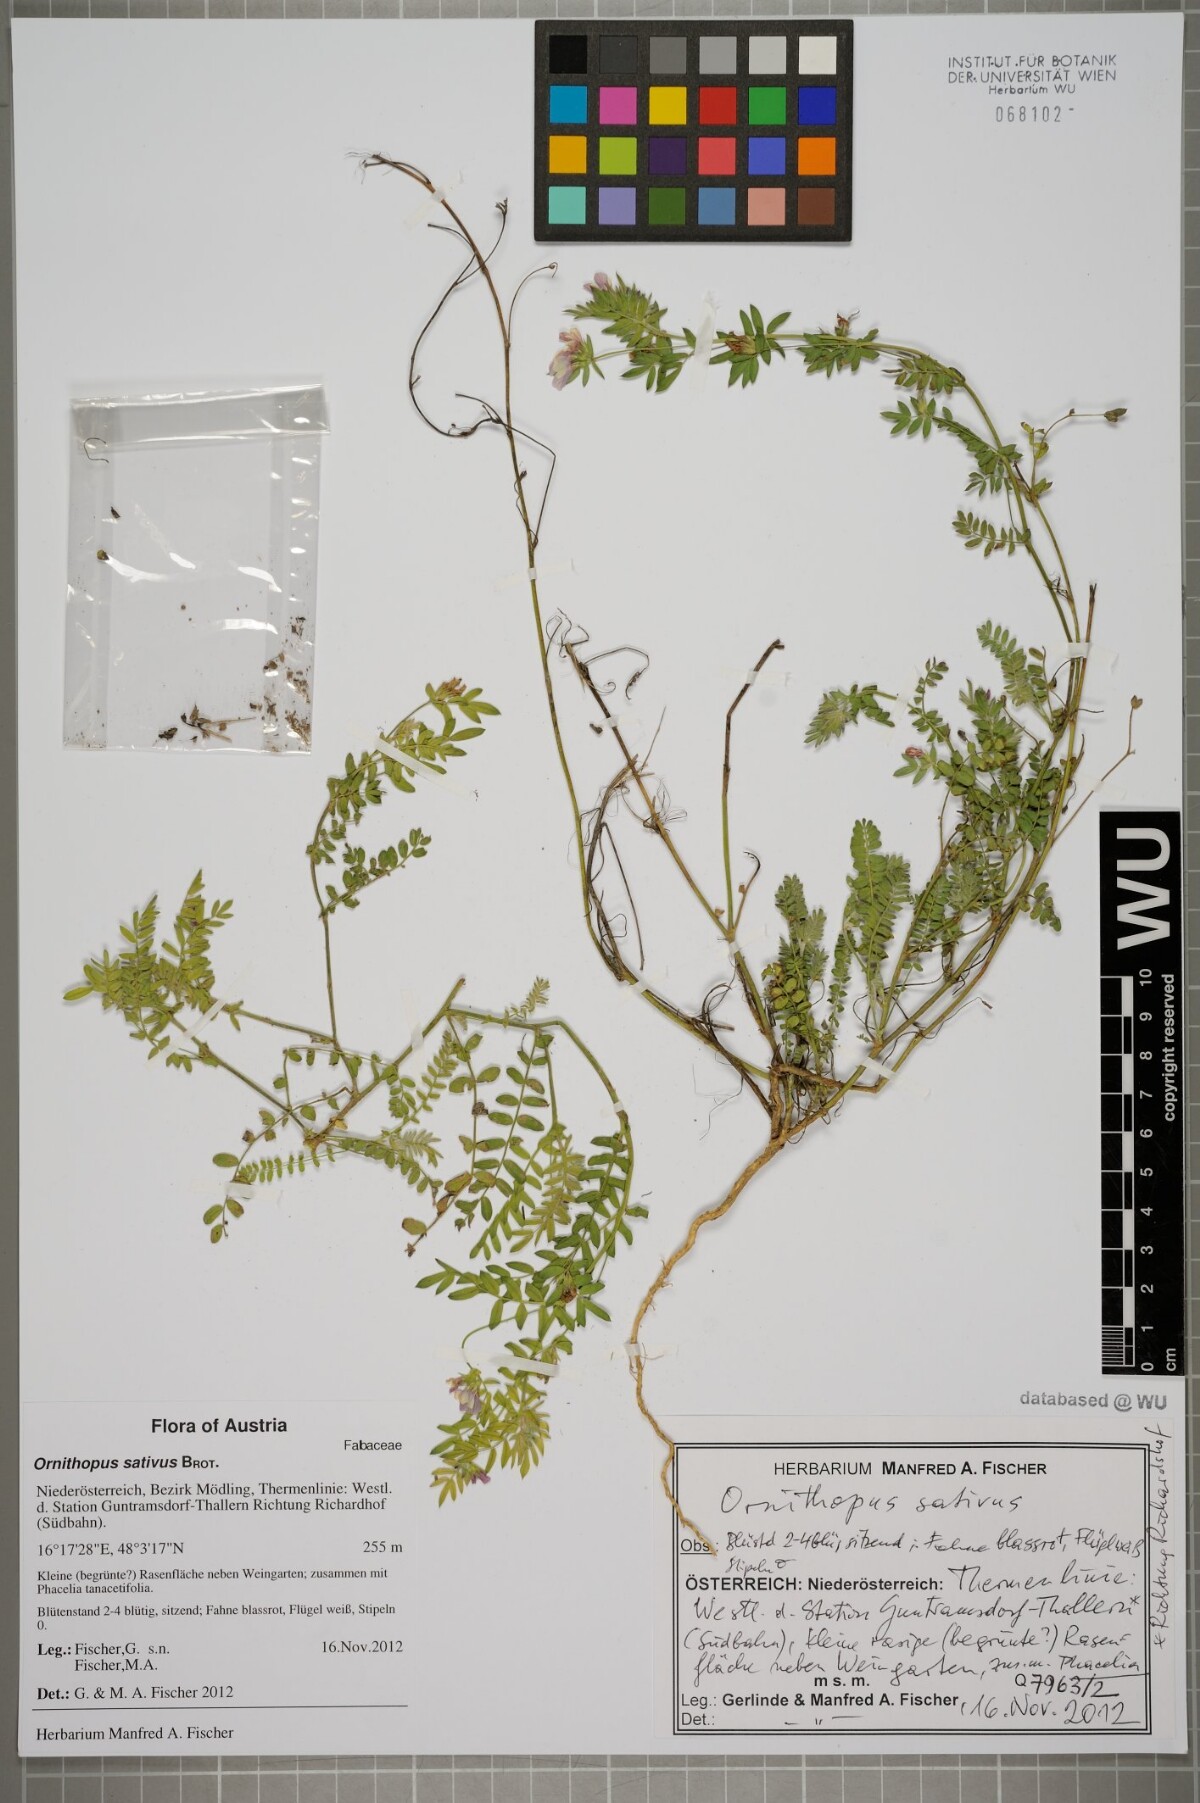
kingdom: Plantae
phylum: Tracheophyta
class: Magnoliopsida
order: Fabales
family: Fabaceae
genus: Ornithopus
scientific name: Ornithopus sativus
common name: Serradella
